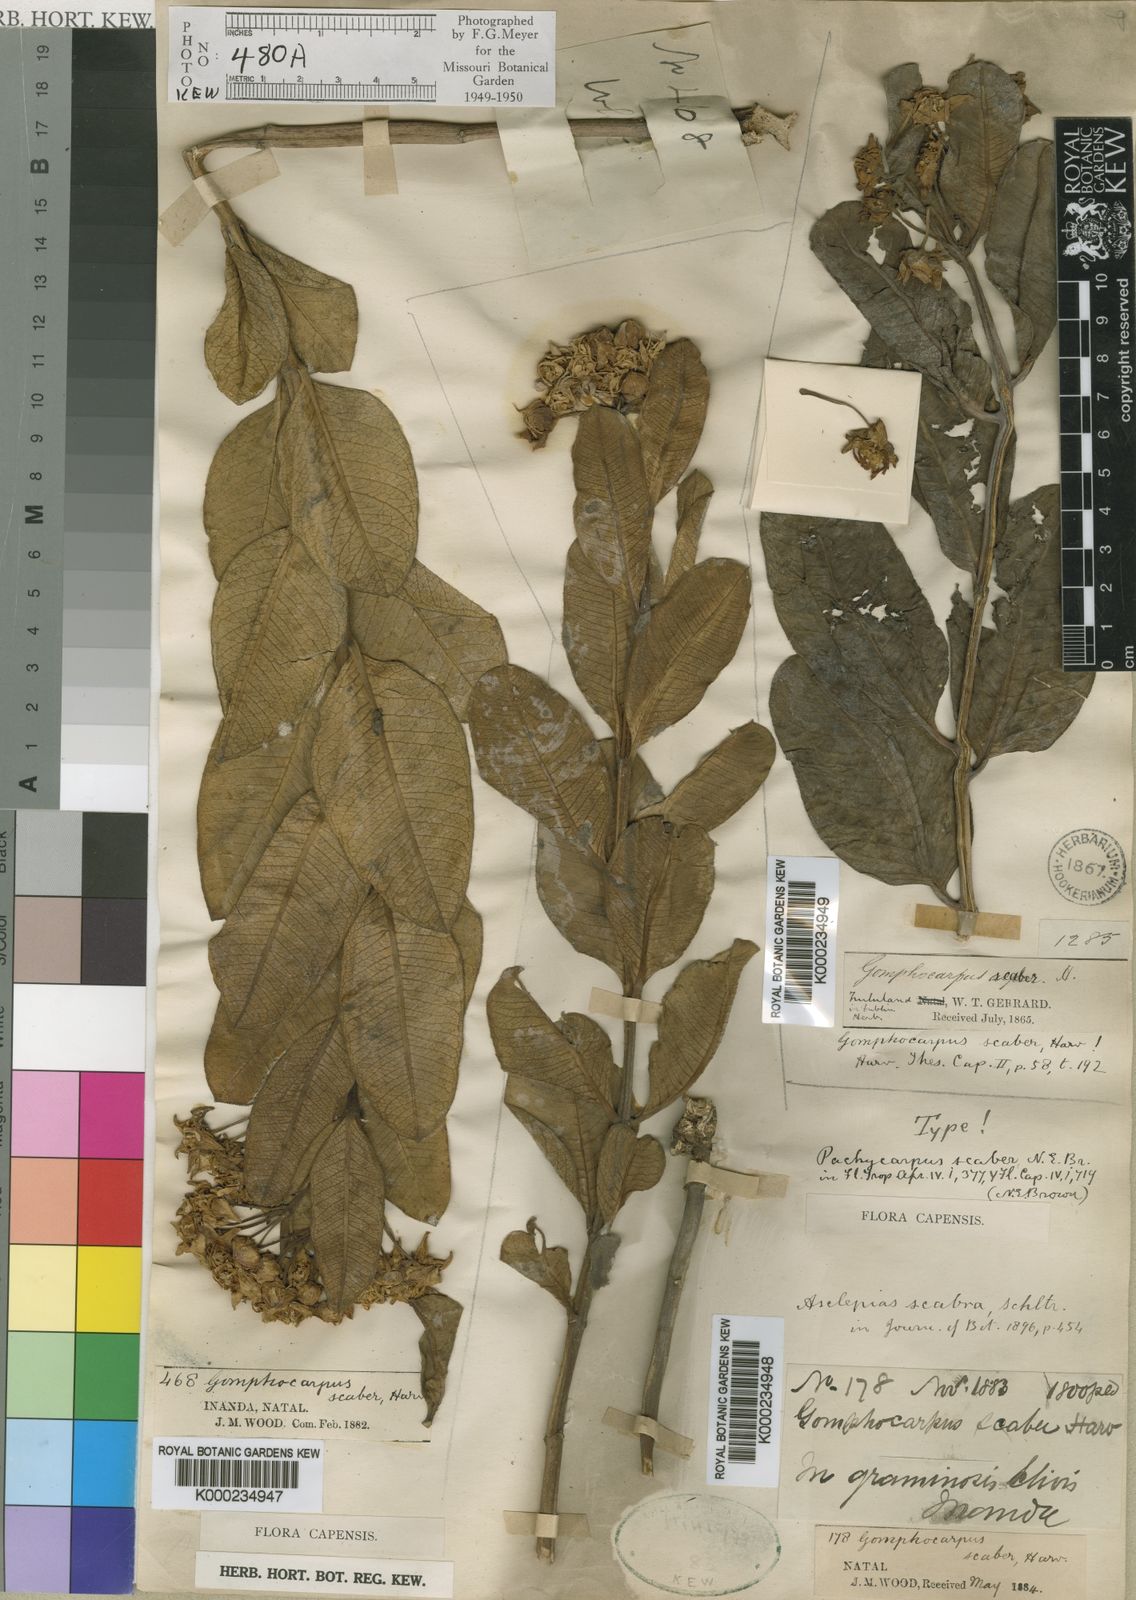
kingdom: Plantae
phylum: Tracheophyta
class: Magnoliopsida
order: Gentianales
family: Apocynaceae
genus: Pachycarpus
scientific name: Pachycarpus scaber
